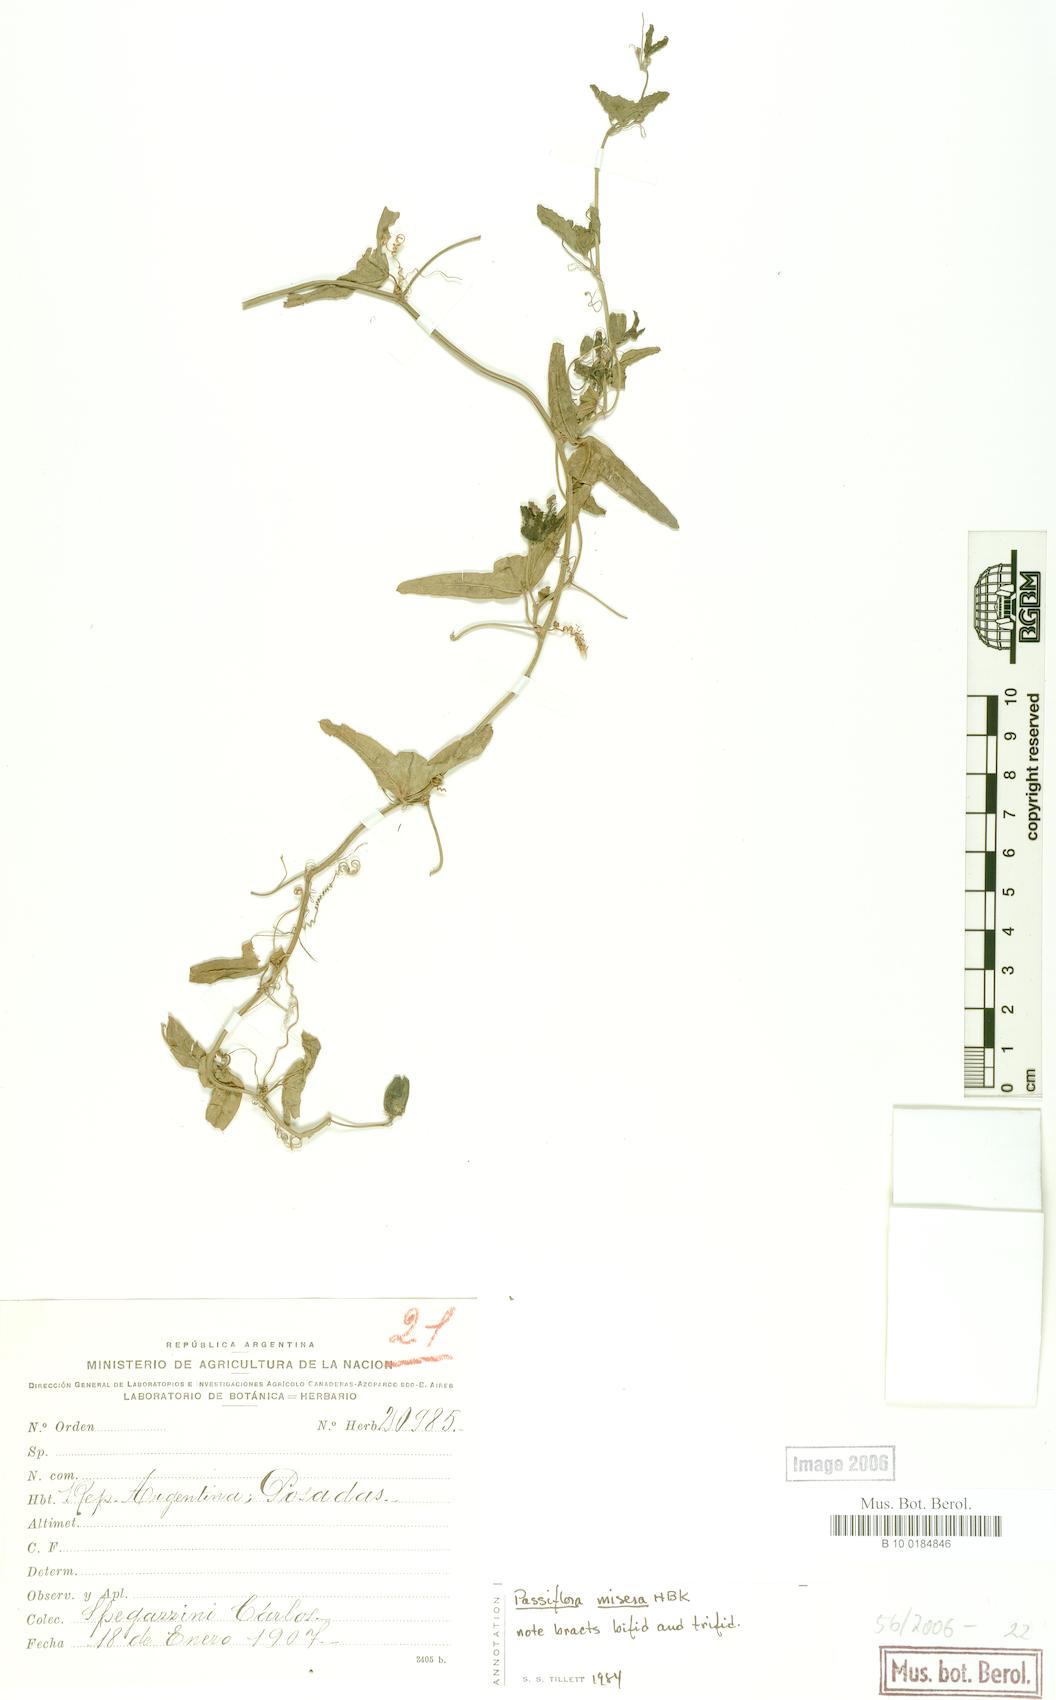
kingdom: Plantae
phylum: Tracheophyta
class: Magnoliopsida
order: Malpighiales
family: Passifloraceae
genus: Passiflora
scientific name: Passiflora misera
